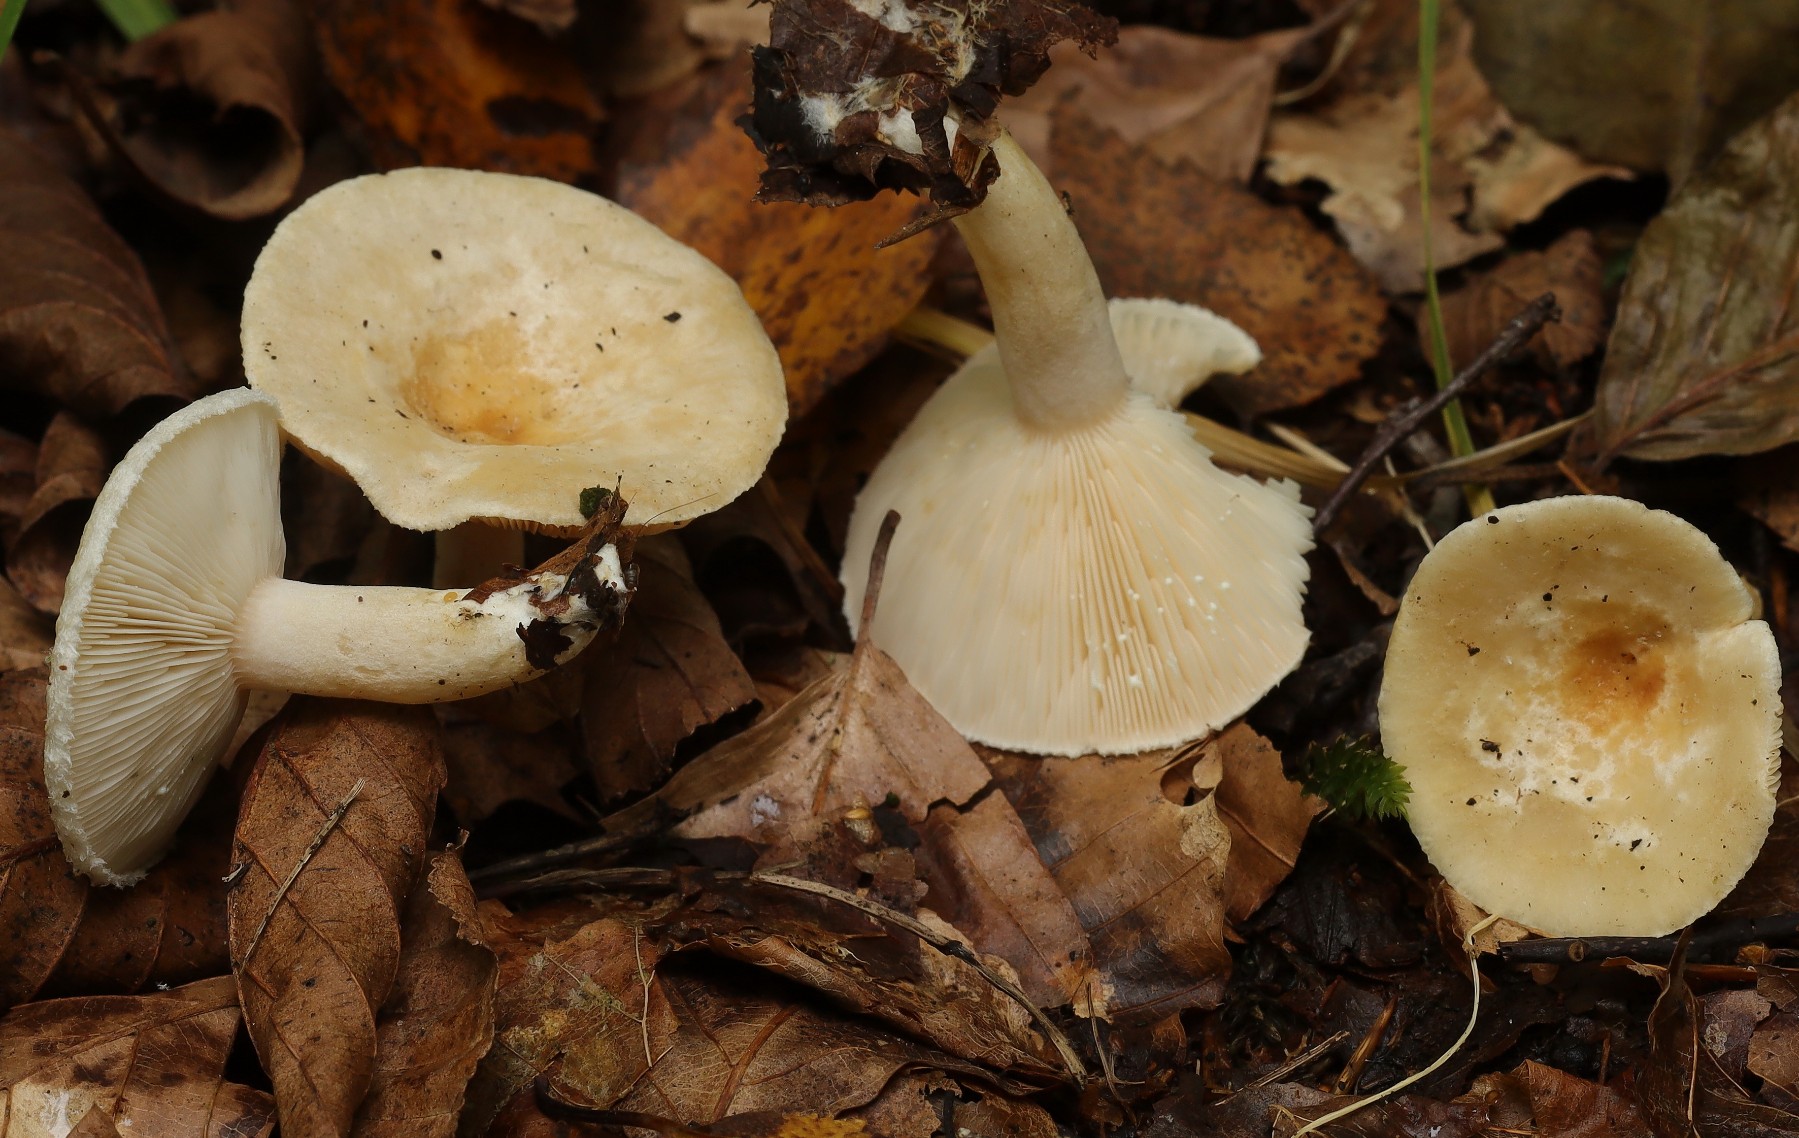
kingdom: Fungi
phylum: Basidiomycota
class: Agaricomycetes
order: Russulales
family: Russulaceae
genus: Lactarius
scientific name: Lactarius scoticus
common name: tørve-mælkehat
